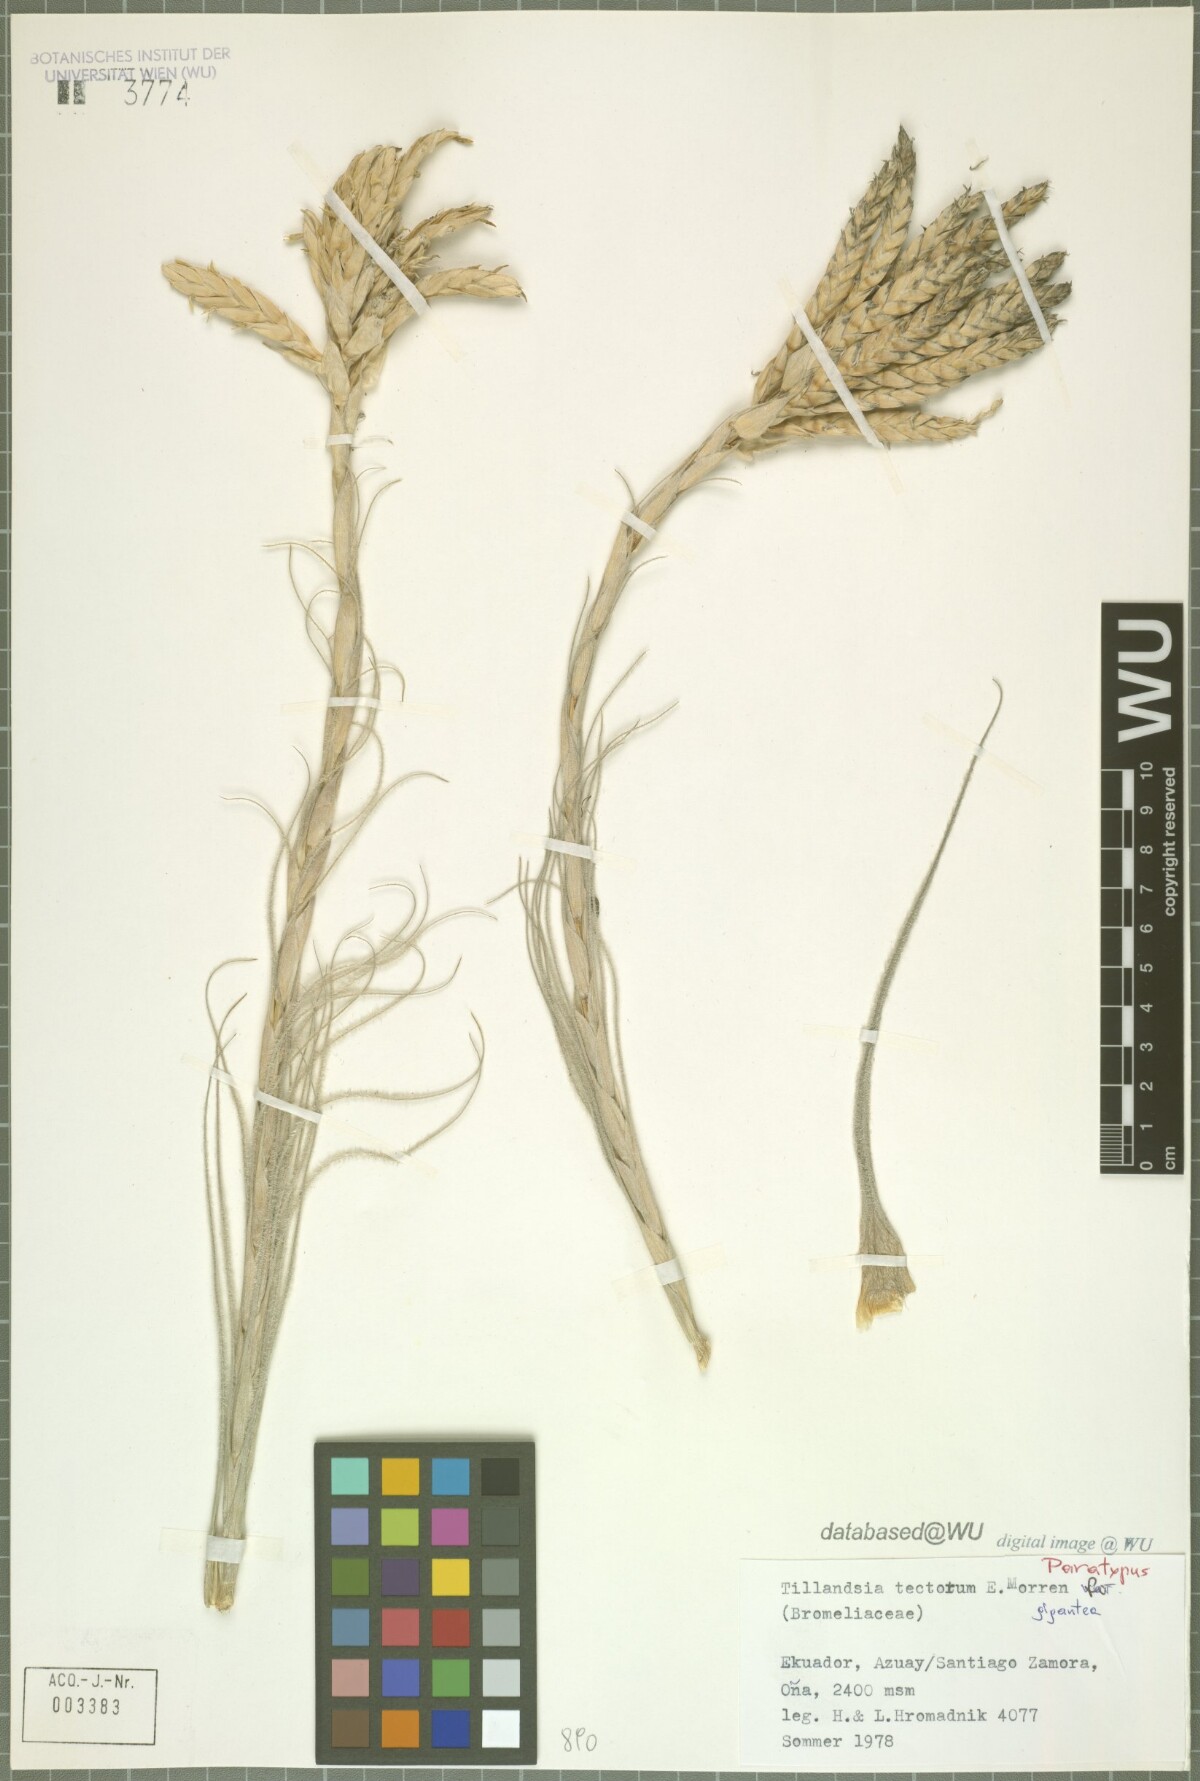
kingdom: Plantae
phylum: Tracheophyta
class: Liliopsida
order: Poales
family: Bromeliaceae
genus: Tillandsia
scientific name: Tillandsia tectorum
